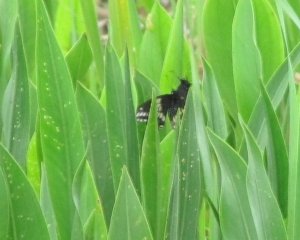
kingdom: Animalia
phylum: Arthropoda
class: Insecta
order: Lepidoptera
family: Papilionidae
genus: Papilio
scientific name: Papilio polyxenes
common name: Black Swallowtail
